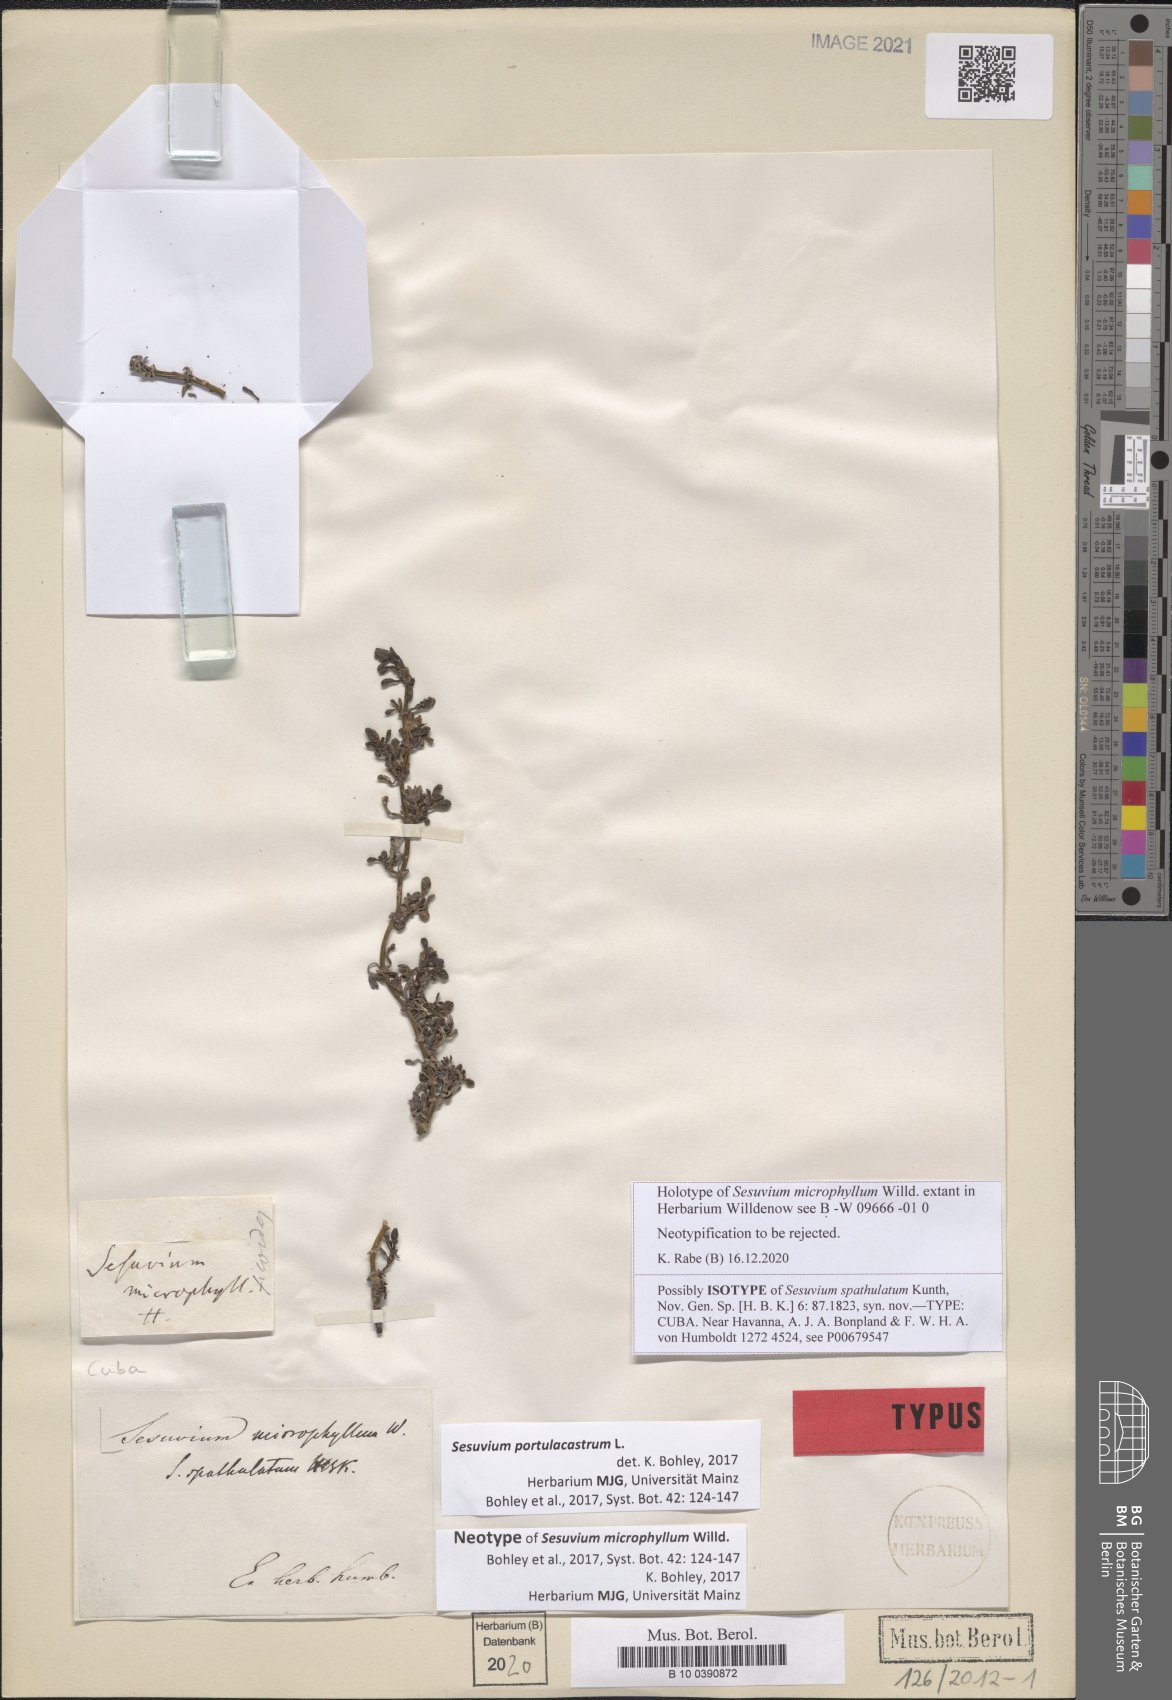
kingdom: Plantae
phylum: Tracheophyta
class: Magnoliopsida
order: Caryophyllales
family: Aizoaceae
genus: Sesuvium
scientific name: Sesuvium portulacastrum
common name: Sea-purslane
